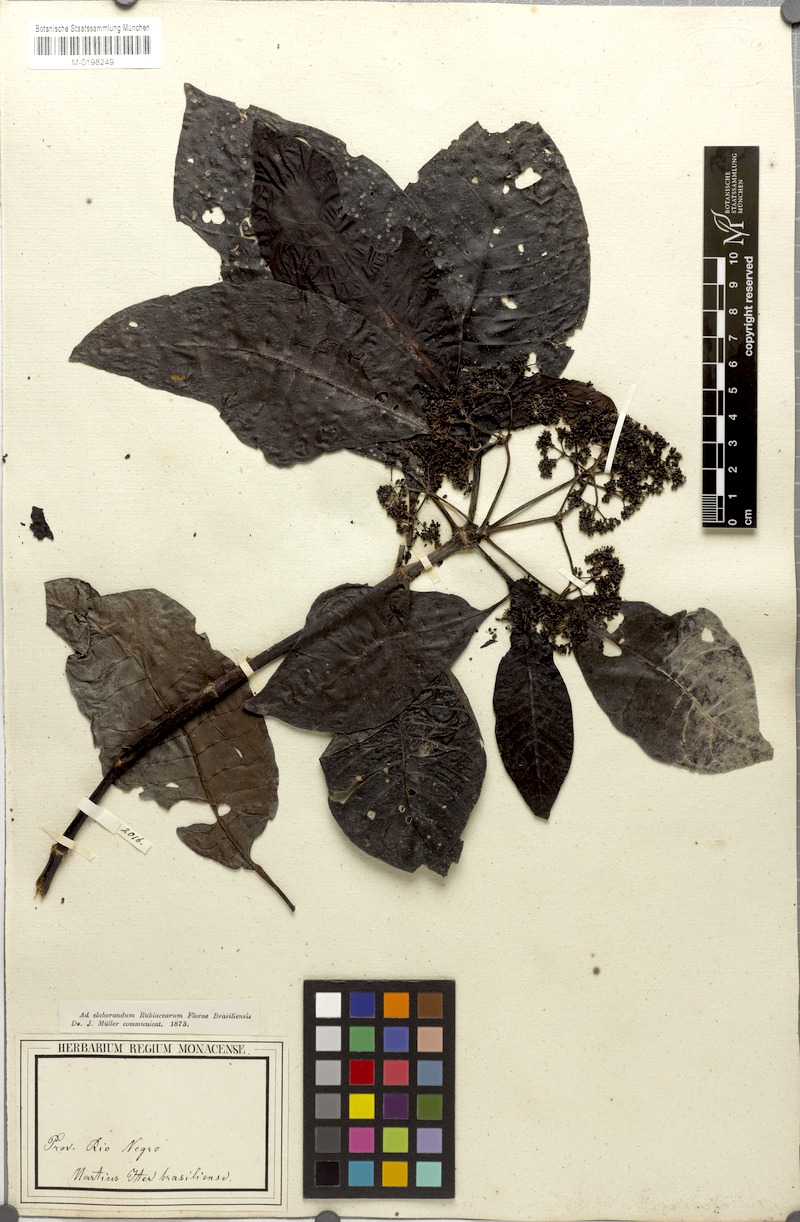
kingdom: Plantae
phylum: Tracheophyta
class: Magnoliopsida
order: Gentianales
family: Rubiaceae
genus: Psychotria
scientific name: Psychotria guianensis
